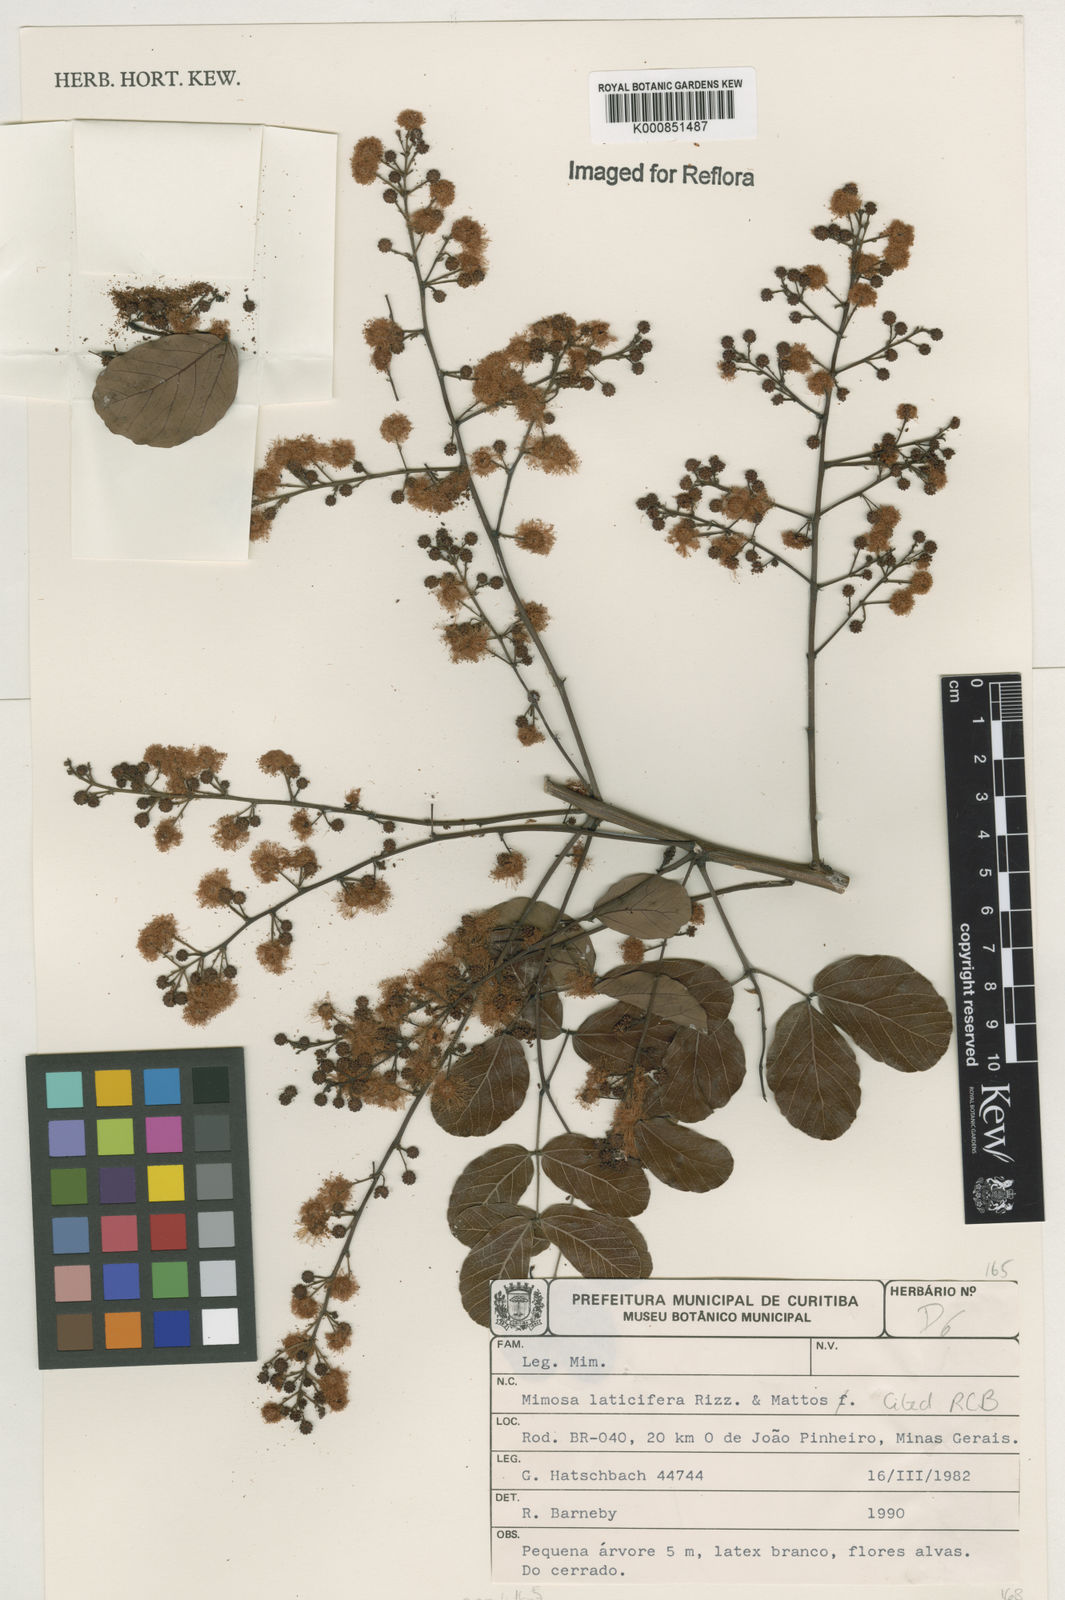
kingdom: Plantae
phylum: Tracheophyta
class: Magnoliopsida
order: Fabales
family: Fabaceae
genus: Mimosa
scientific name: Mimosa laticifera
